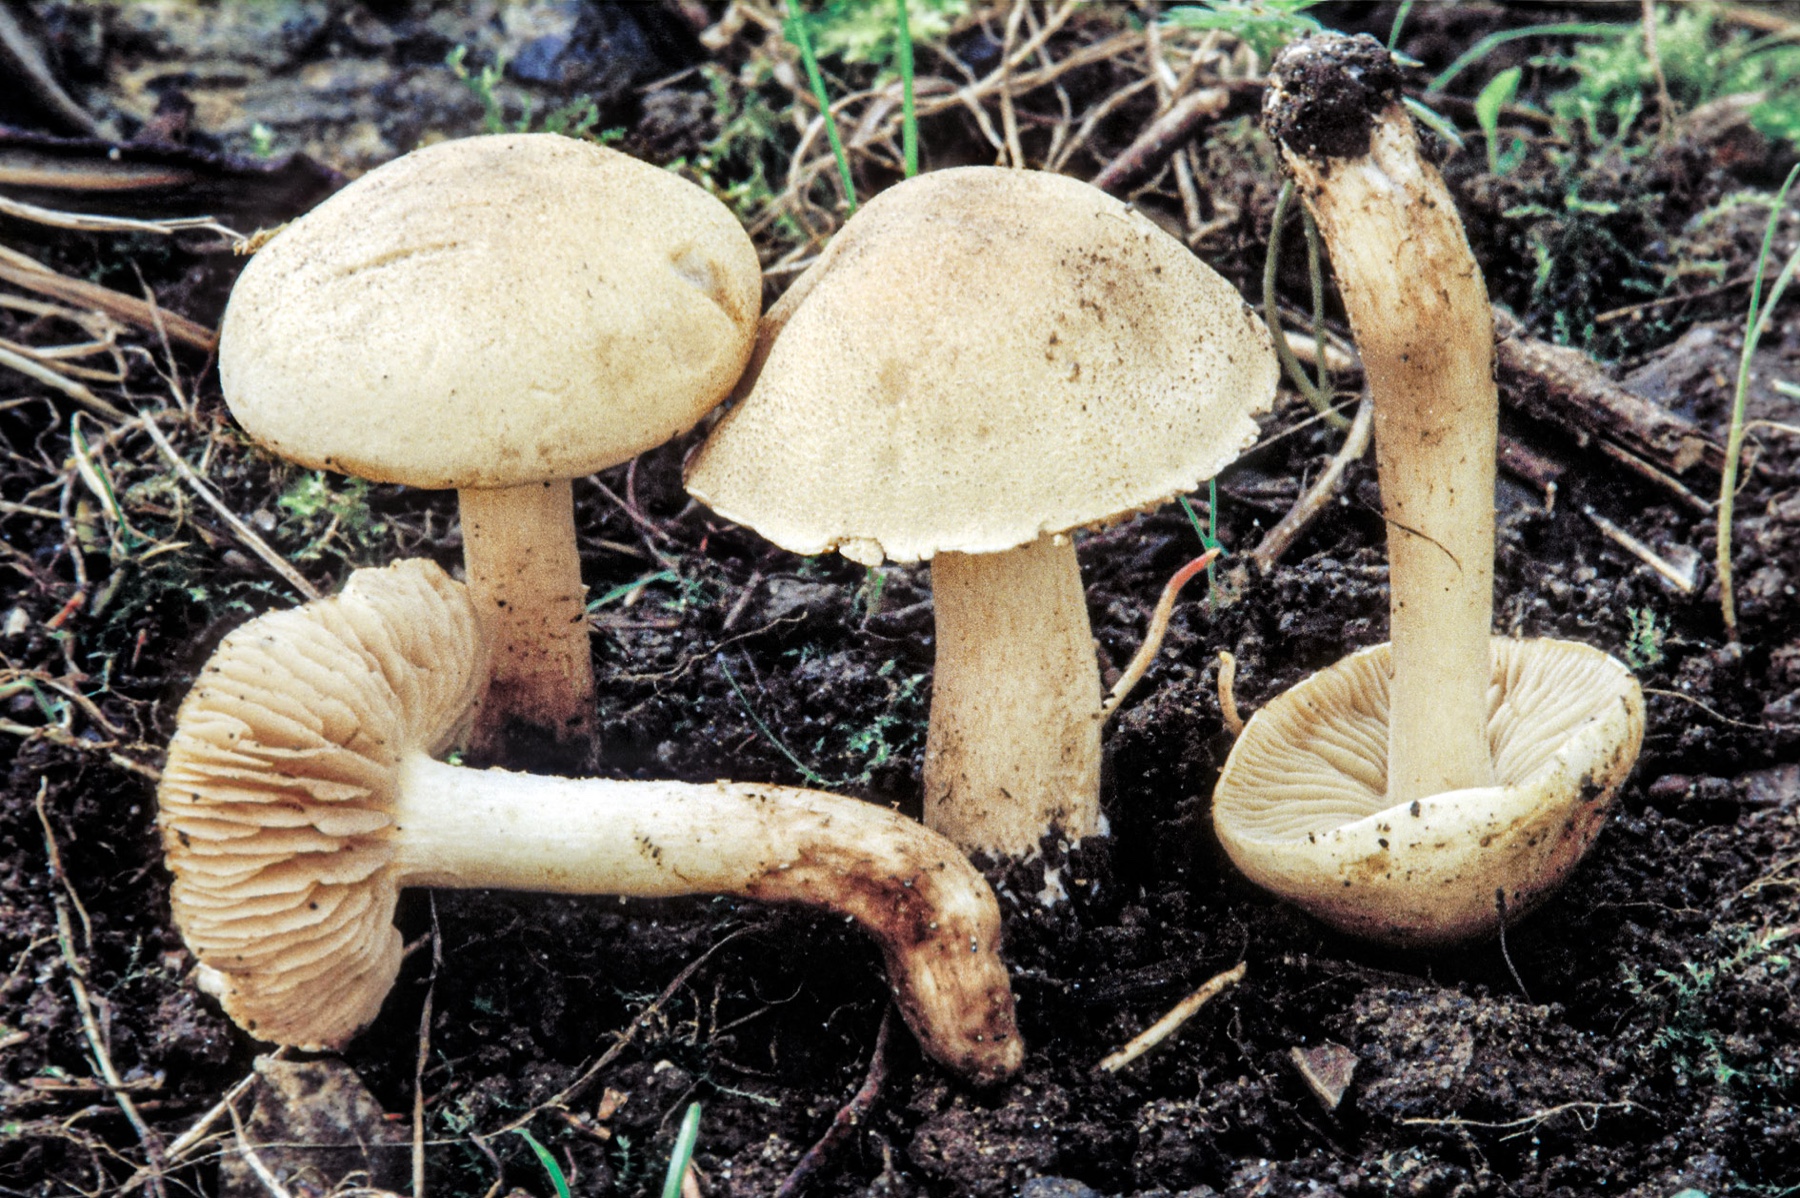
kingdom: Fungi
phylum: Basidiomycota
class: Agaricomycetes
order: Agaricales
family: Hymenogastraceae
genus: Hebeloma
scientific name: Hebeloma odoratissimum
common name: filtet tåreblad
